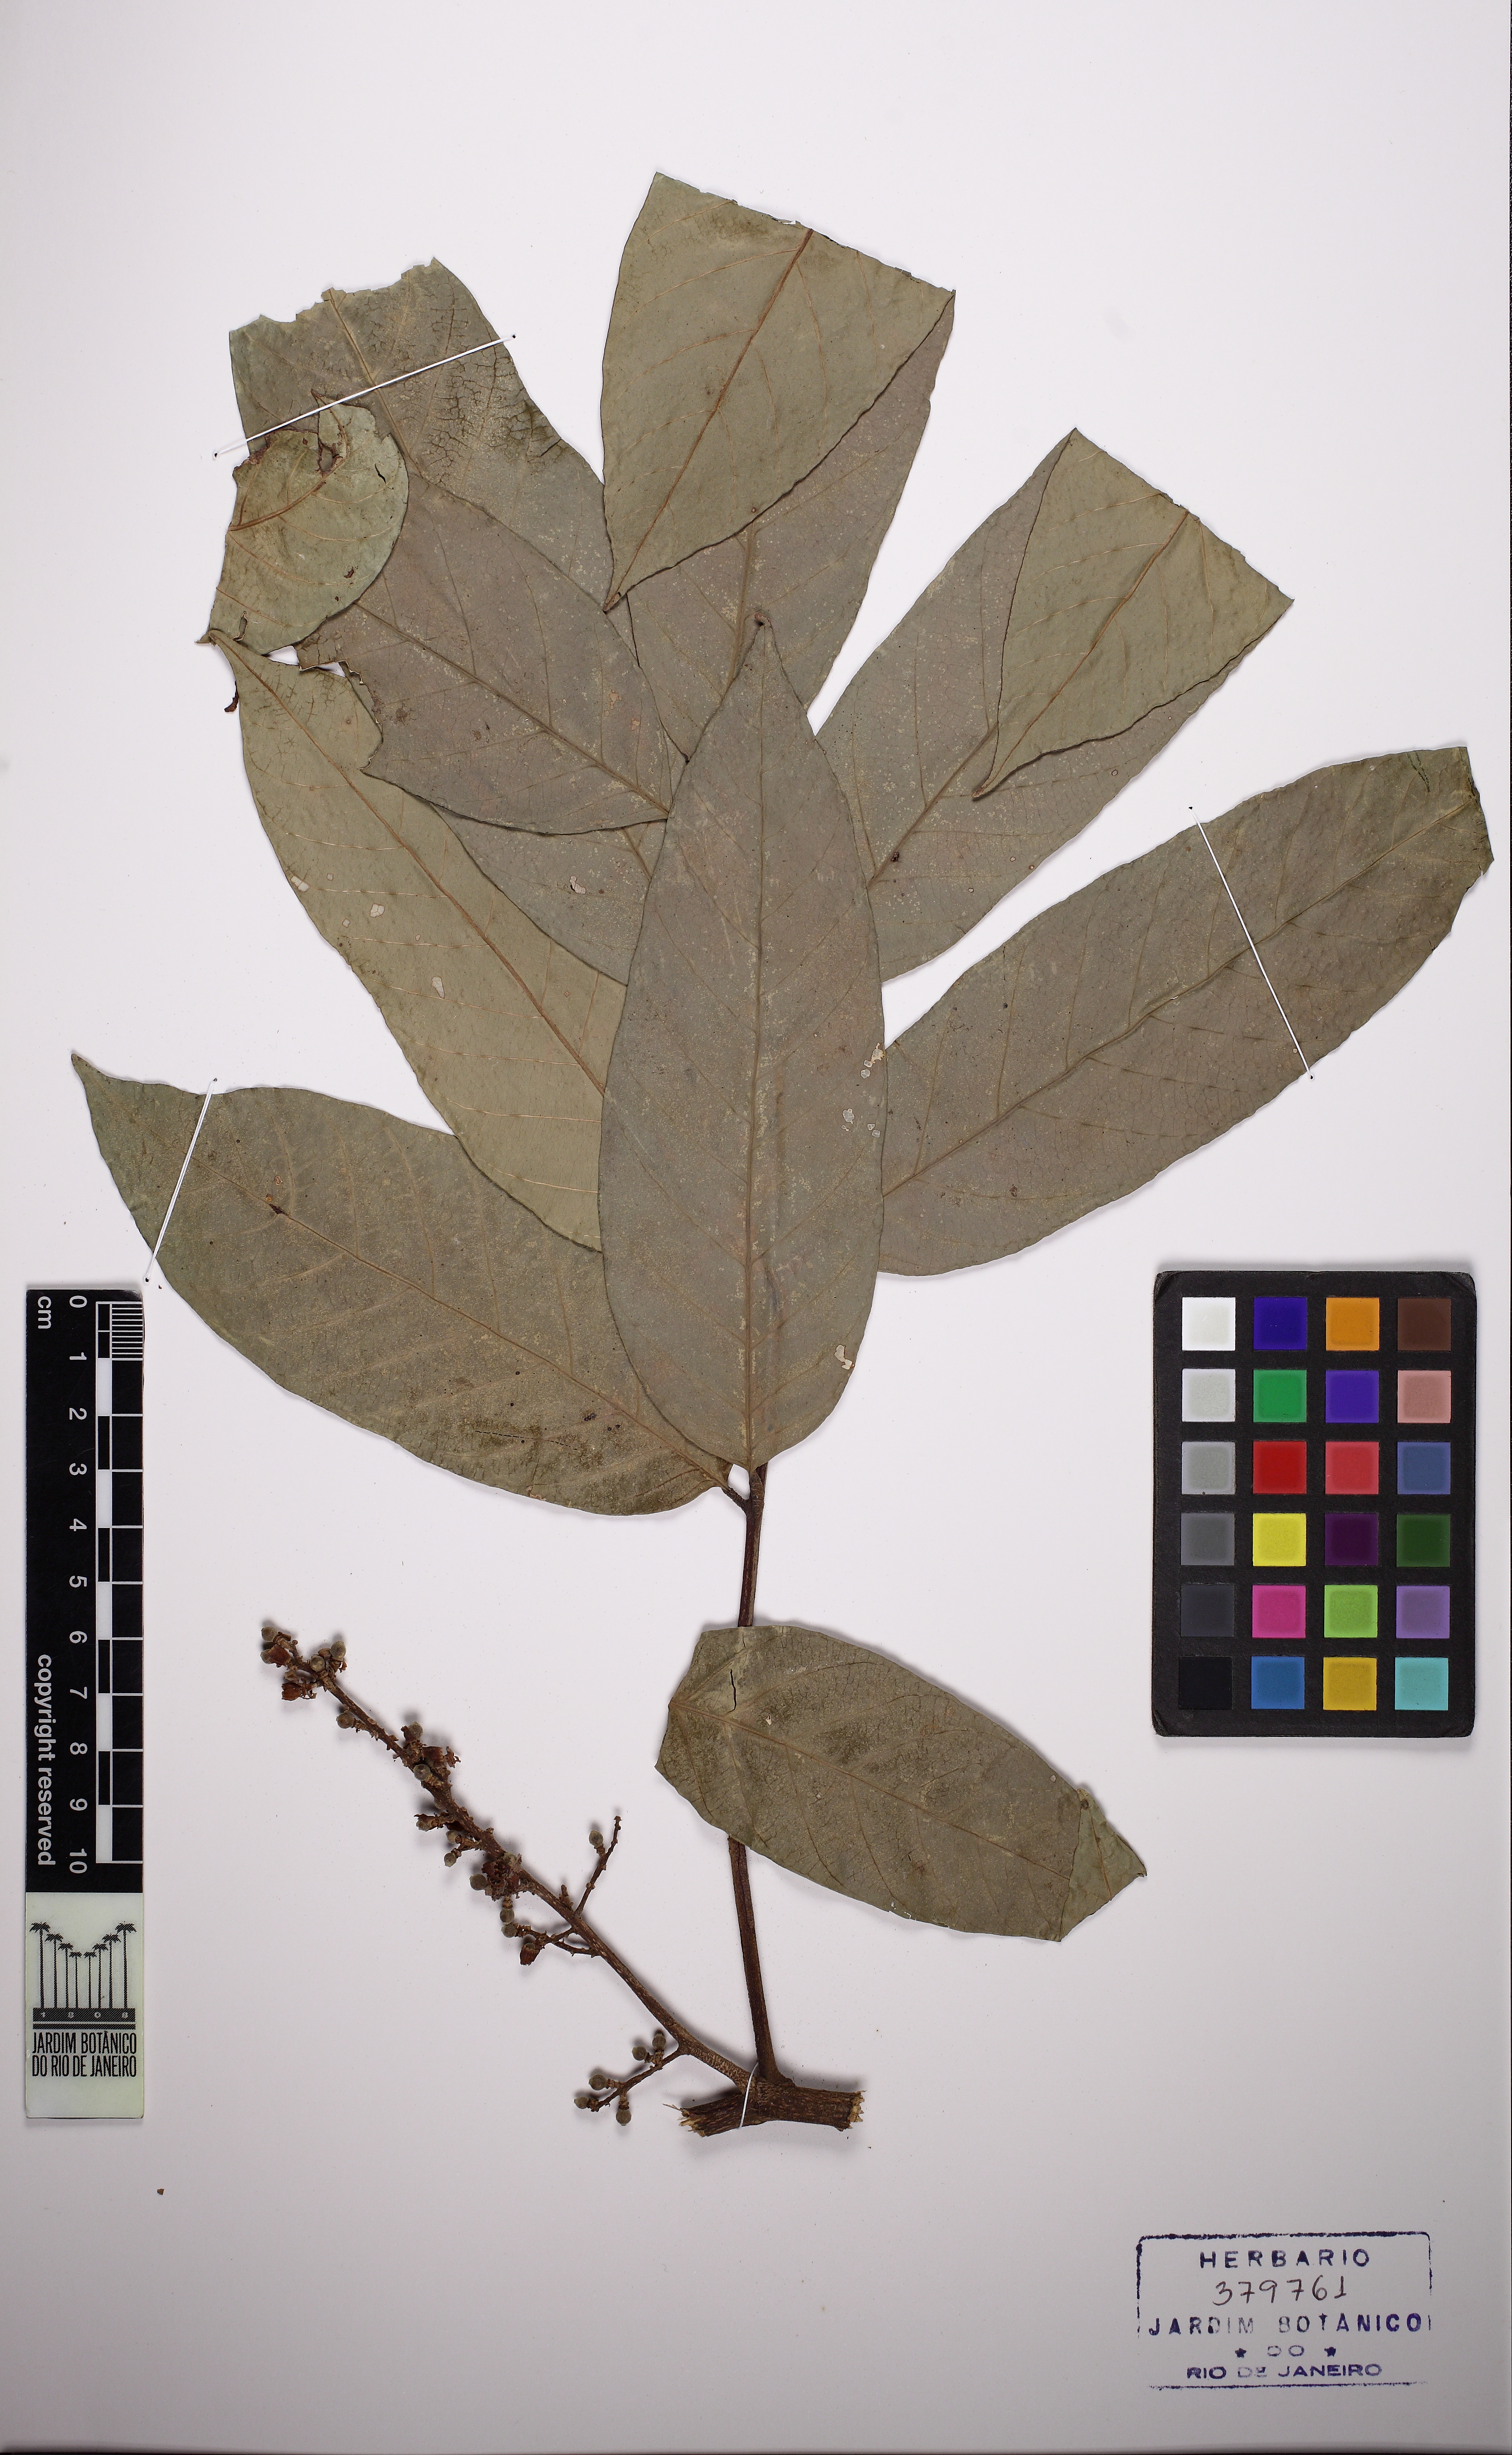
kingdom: Plantae
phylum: Tracheophyta
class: Magnoliopsida
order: Sapindales
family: Meliaceae
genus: Guarea
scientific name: Guarea guidonia
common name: American muskwood
